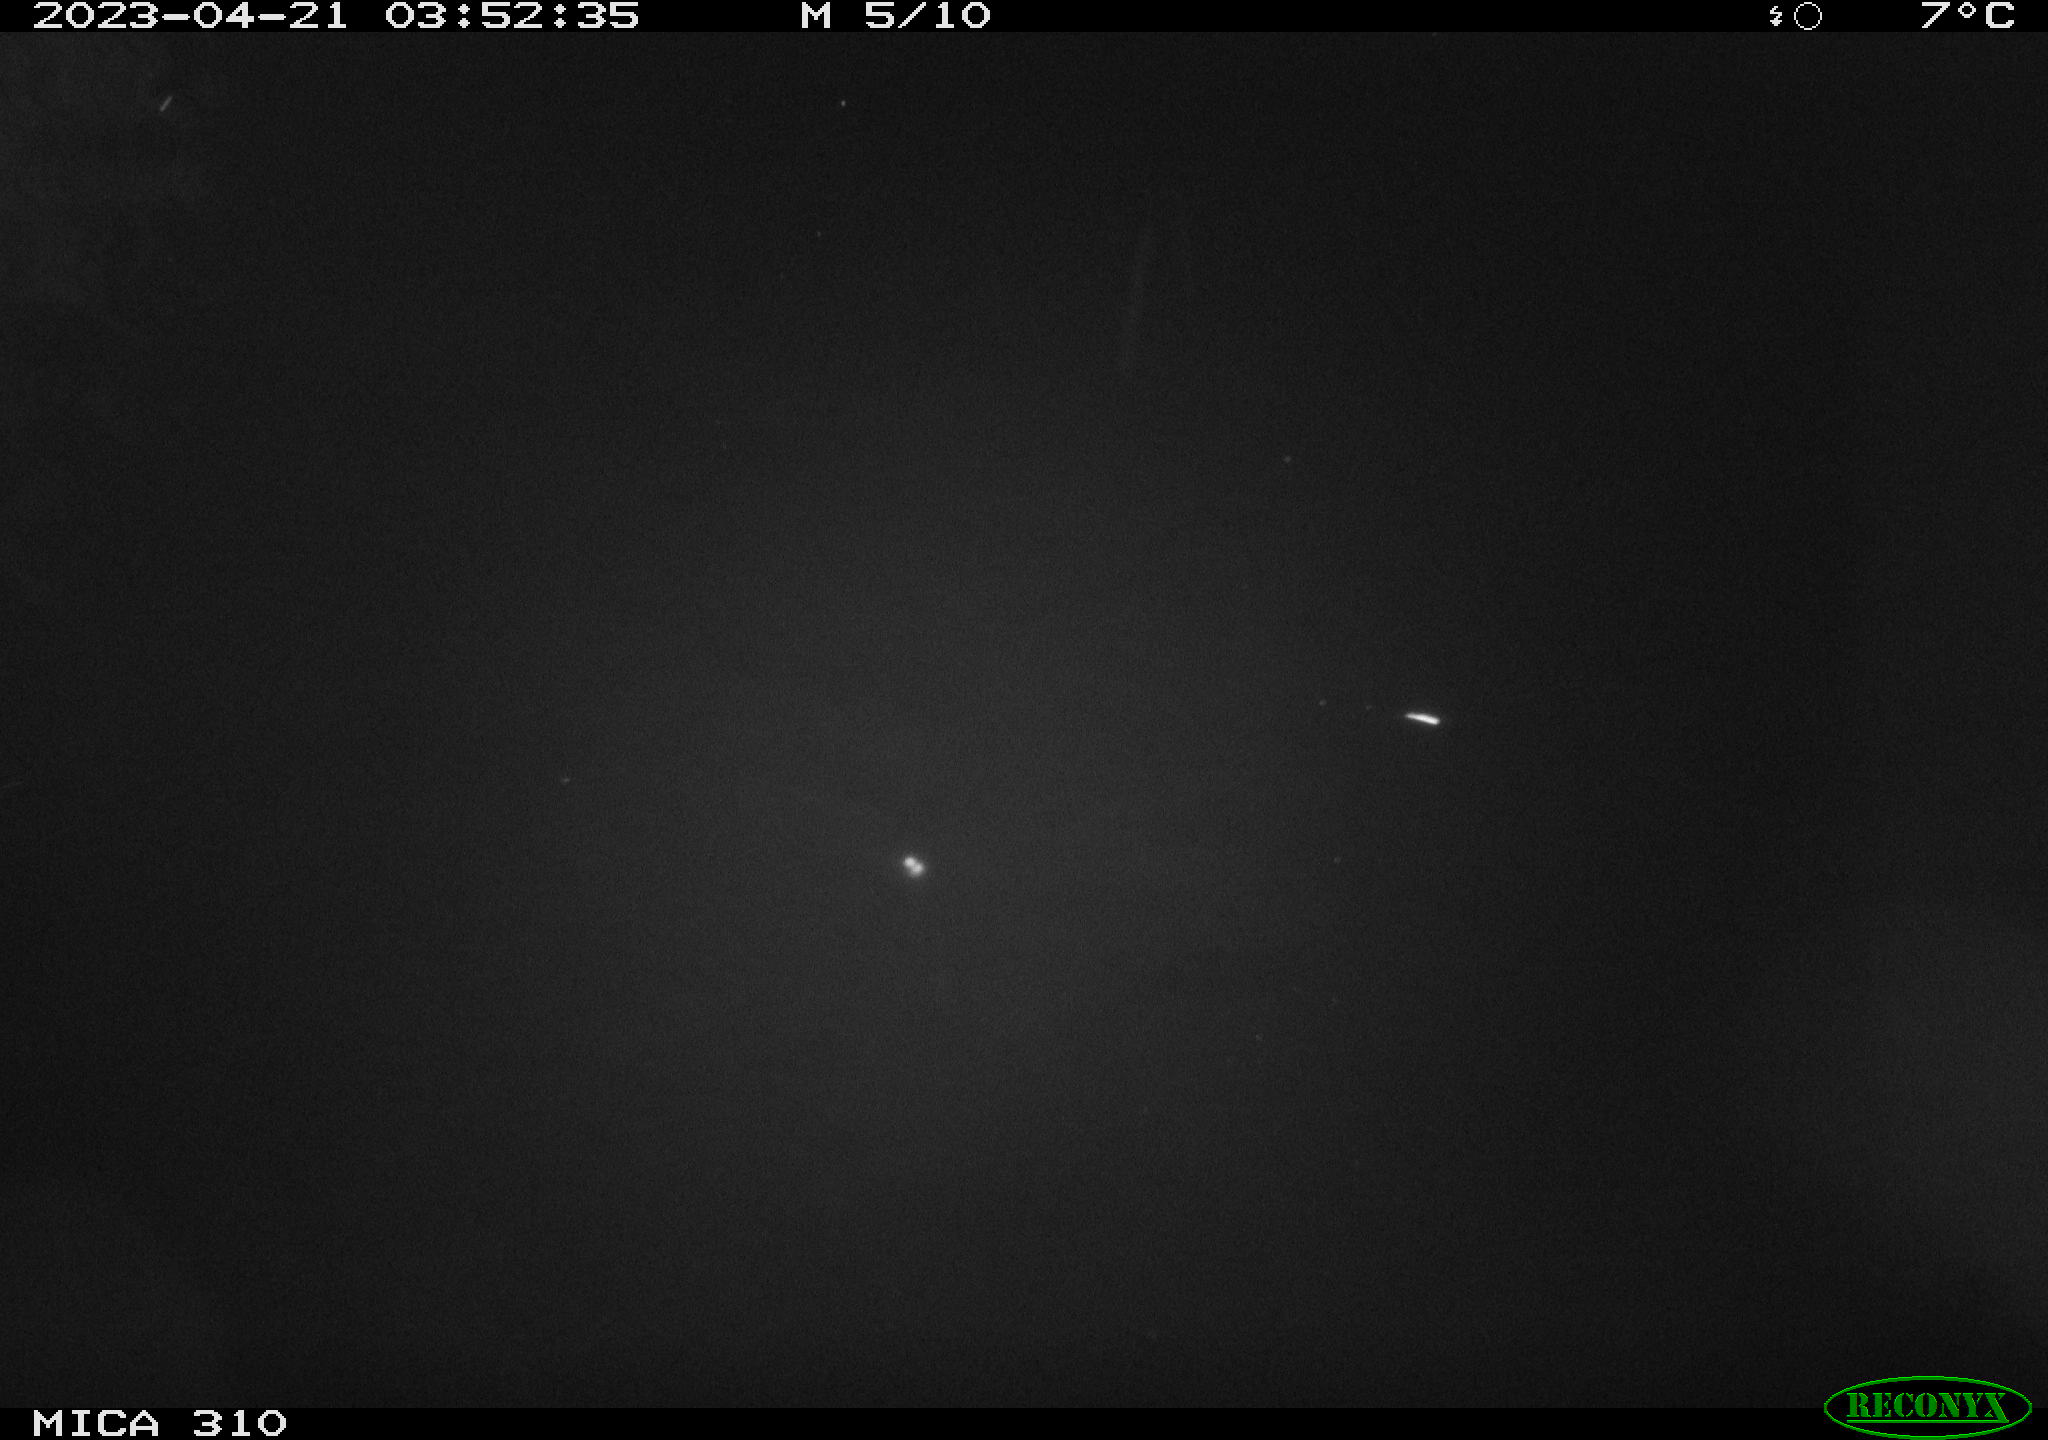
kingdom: Animalia
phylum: Chordata
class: Mammalia
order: Rodentia
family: Cricetidae
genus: Ondatra
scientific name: Ondatra zibethicus
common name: Muskrat
